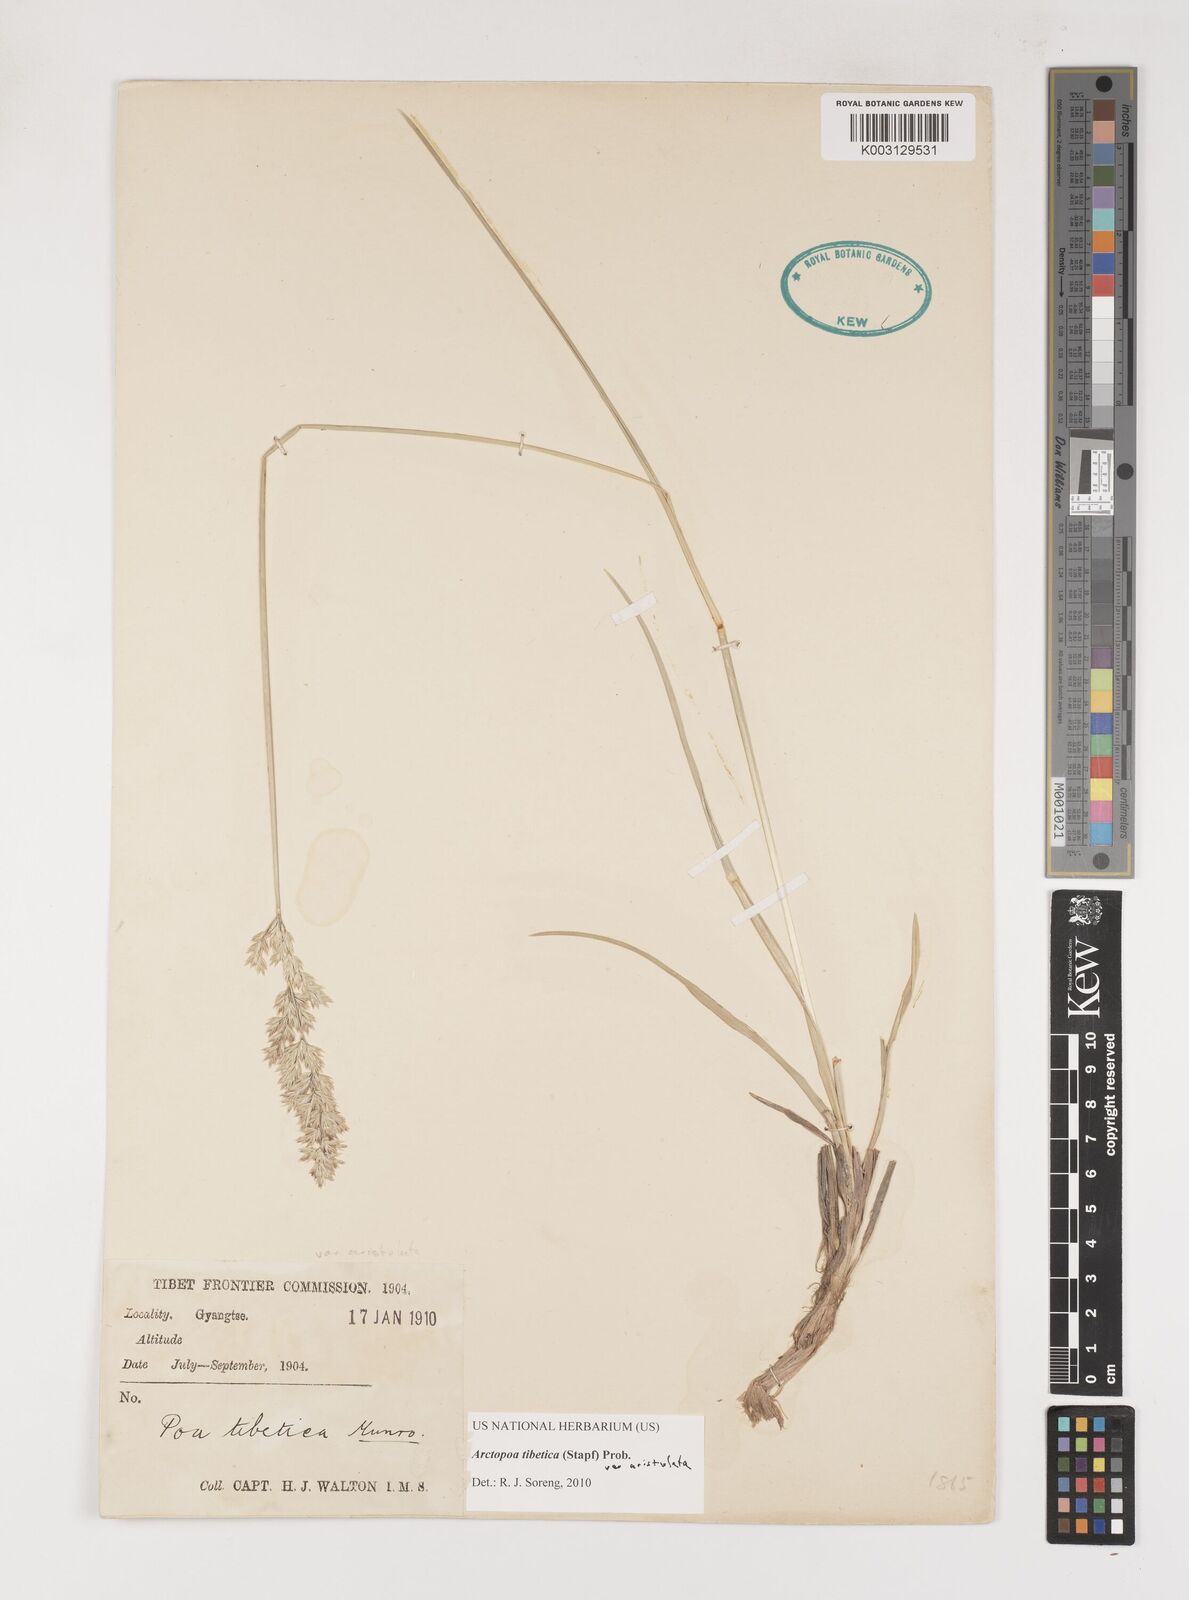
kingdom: Plantae
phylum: Tracheophyta
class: Liliopsida
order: Poales
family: Poaceae
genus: Arctopoa
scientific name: Arctopoa tibetica
